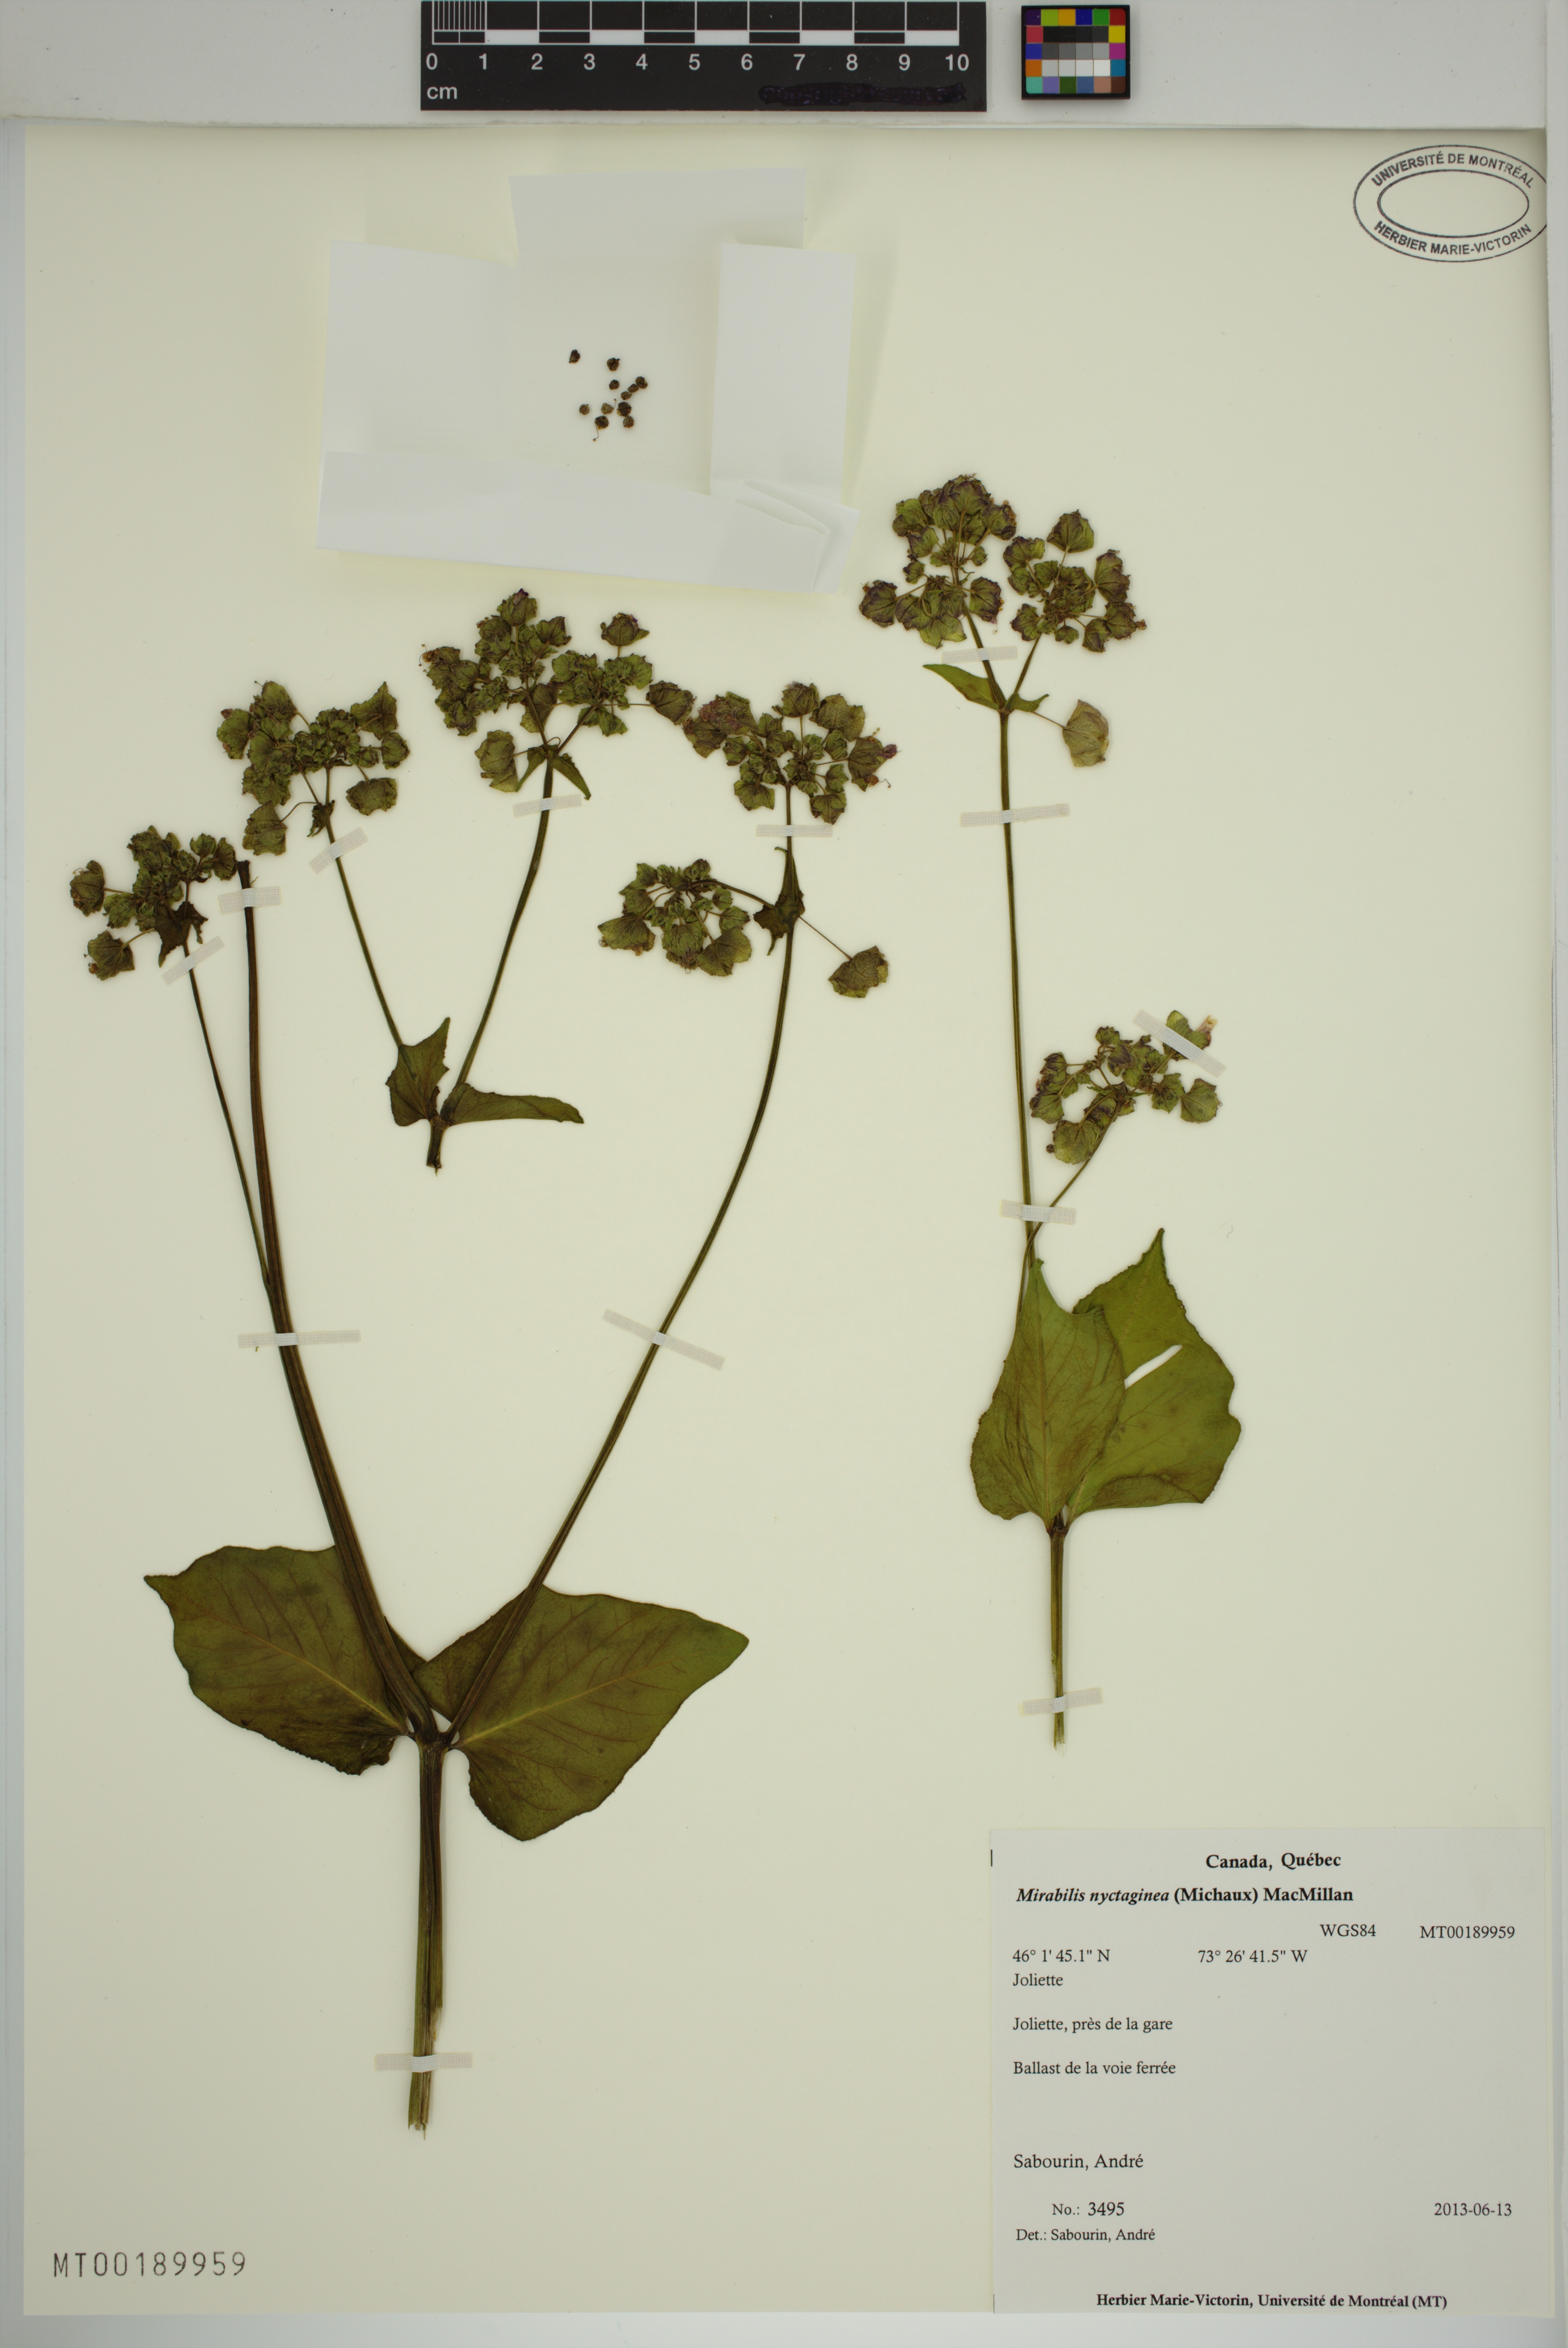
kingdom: Plantae
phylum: Tracheophyta
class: Magnoliopsida
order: Caryophyllales
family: Nyctaginaceae
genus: Mirabilis
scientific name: Mirabilis nyctaginea
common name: Umbrella wort
